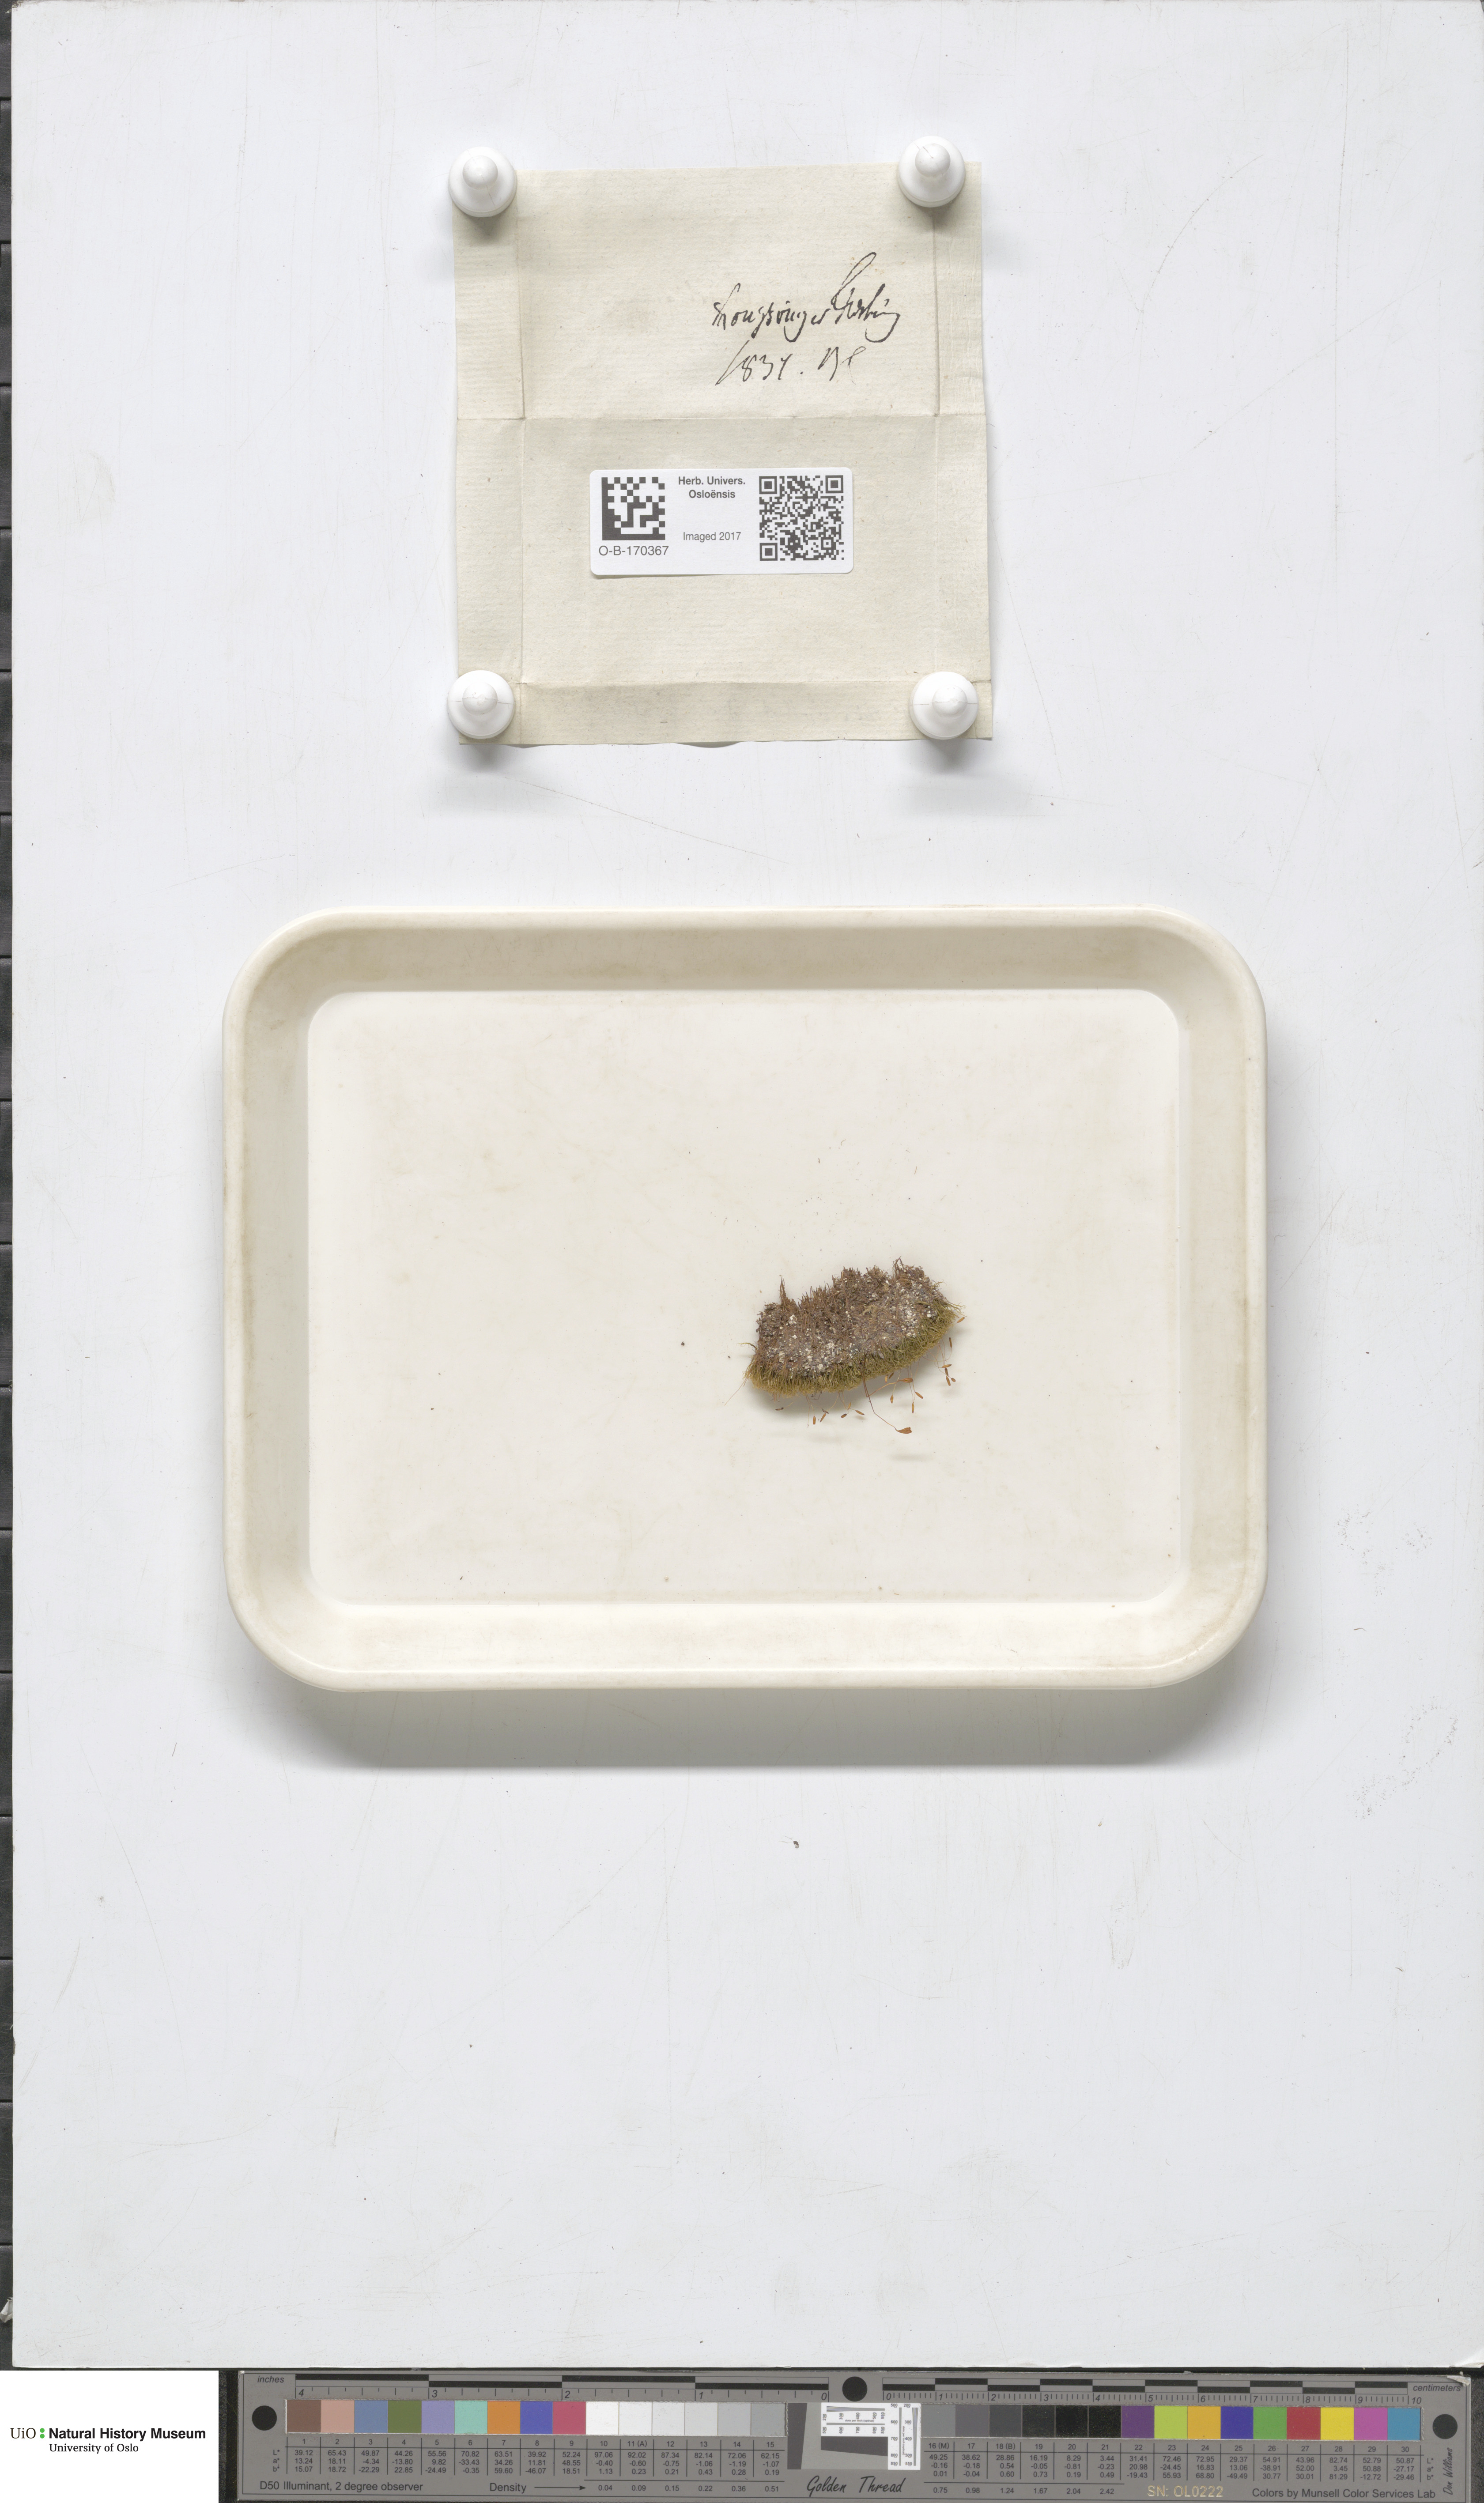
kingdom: Plantae
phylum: Bryophyta
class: Bryopsida
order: Scouleriales
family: Distichiaceae
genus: Distichium
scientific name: Distichium capillaceum
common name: Erect-fruited iris moss
